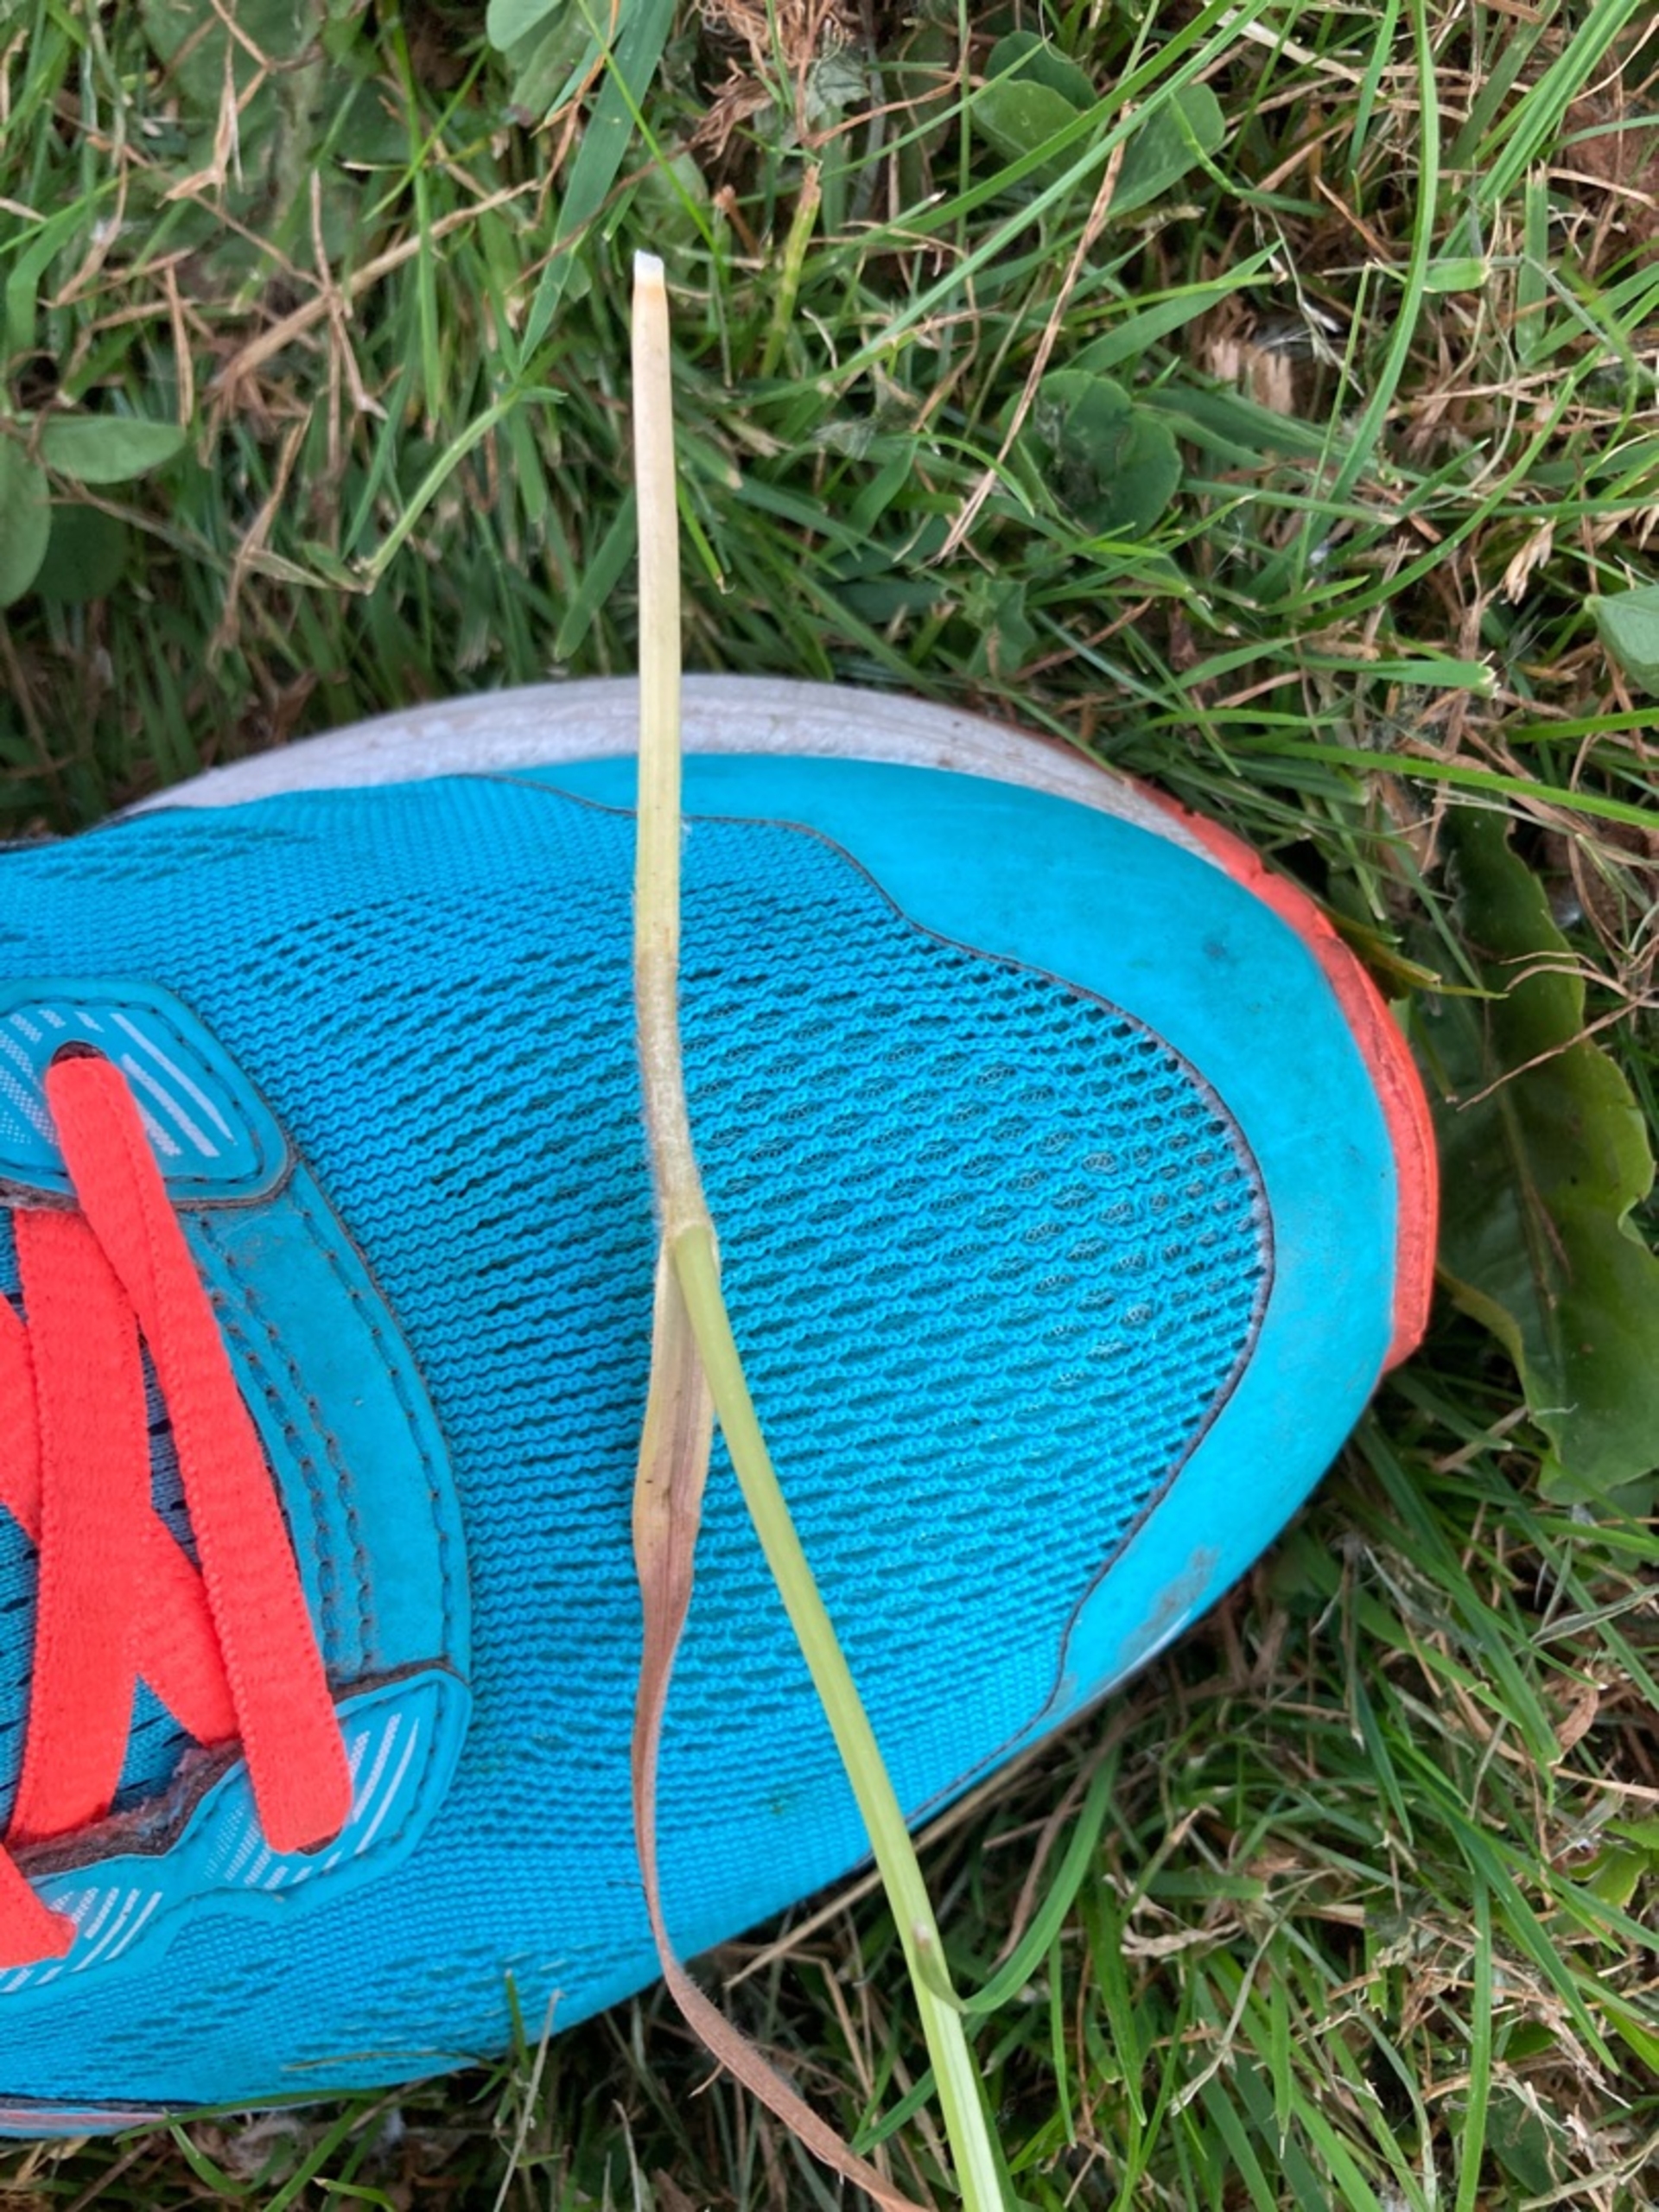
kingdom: Plantae
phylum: Tracheophyta
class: Liliopsida
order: Poales
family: Cyperaceae
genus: Carex
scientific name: Carex hirta
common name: Håret star
